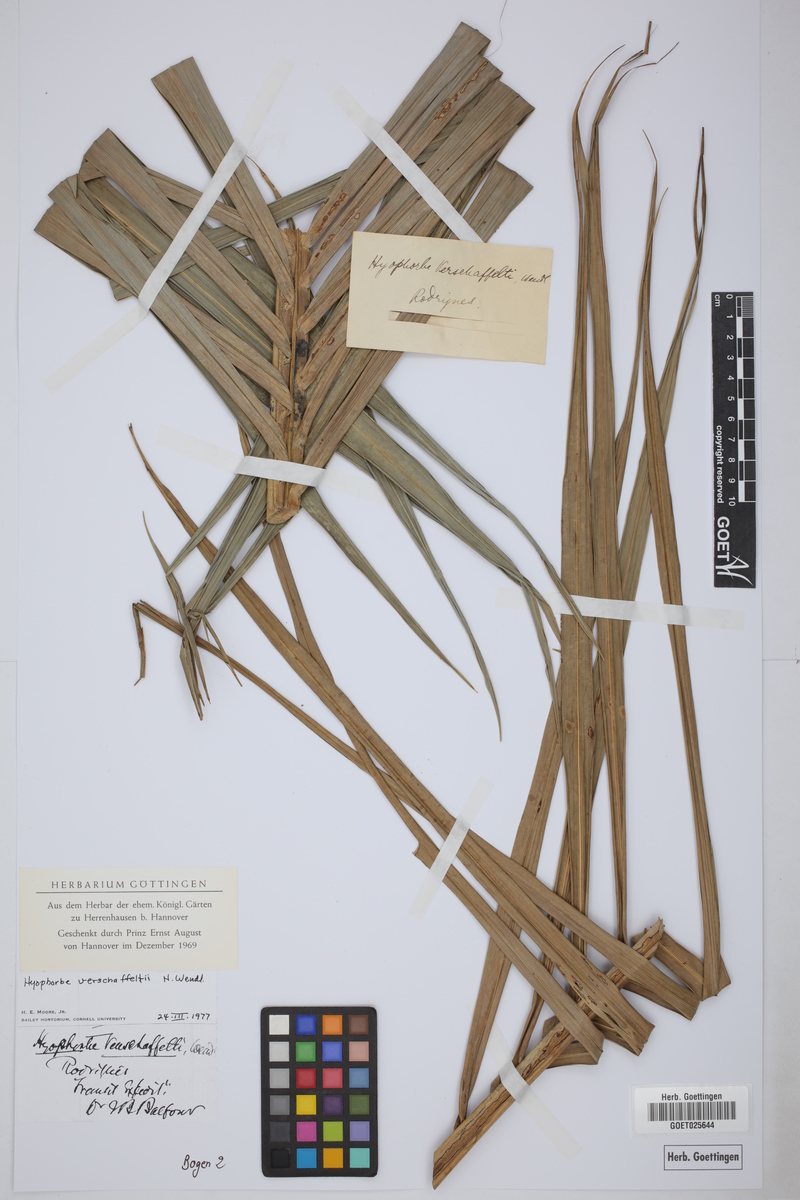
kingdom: Plantae
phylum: Tracheophyta
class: Liliopsida
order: Arecales
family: Arecaceae
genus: Hyophorbe
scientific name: Hyophorbe verschaffeltii
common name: Spindle palm
